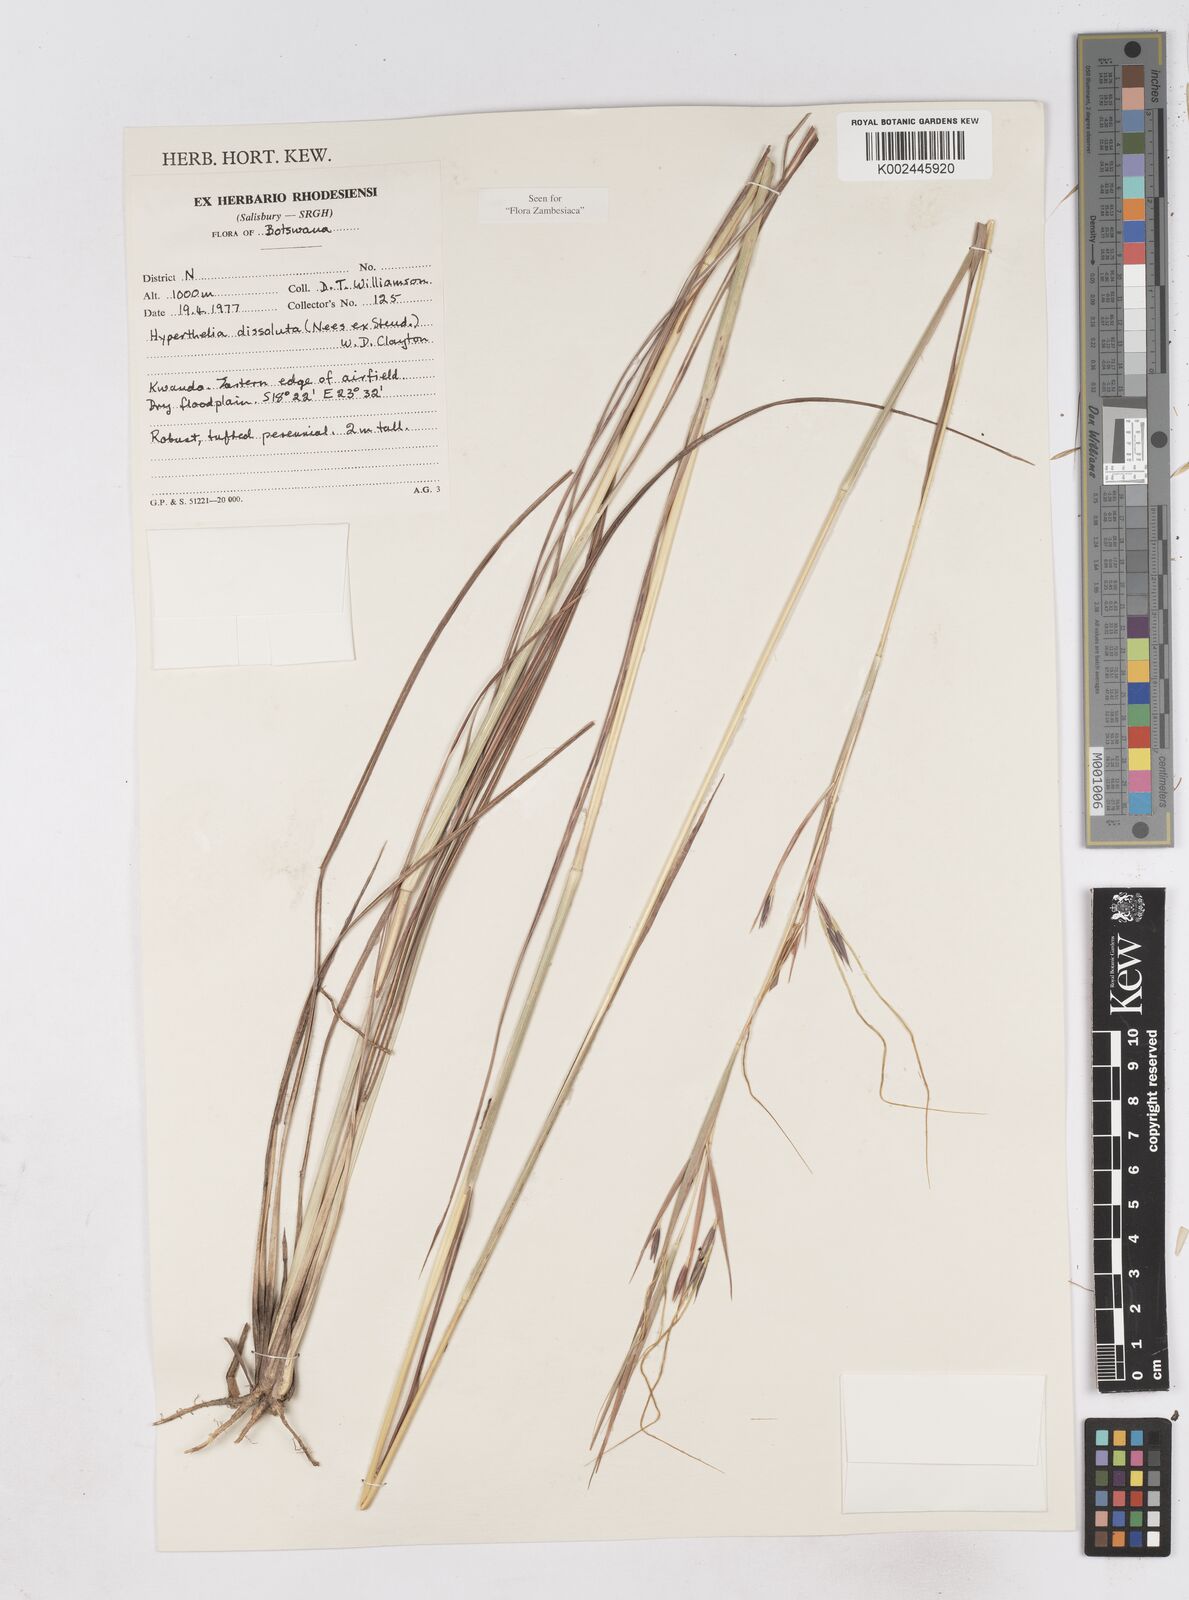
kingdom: Plantae
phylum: Tracheophyta
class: Liliopsida
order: Poales
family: Poaceae
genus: Hyperthelia
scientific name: Hyperthelia dissoluta
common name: Yellow thatching grass
